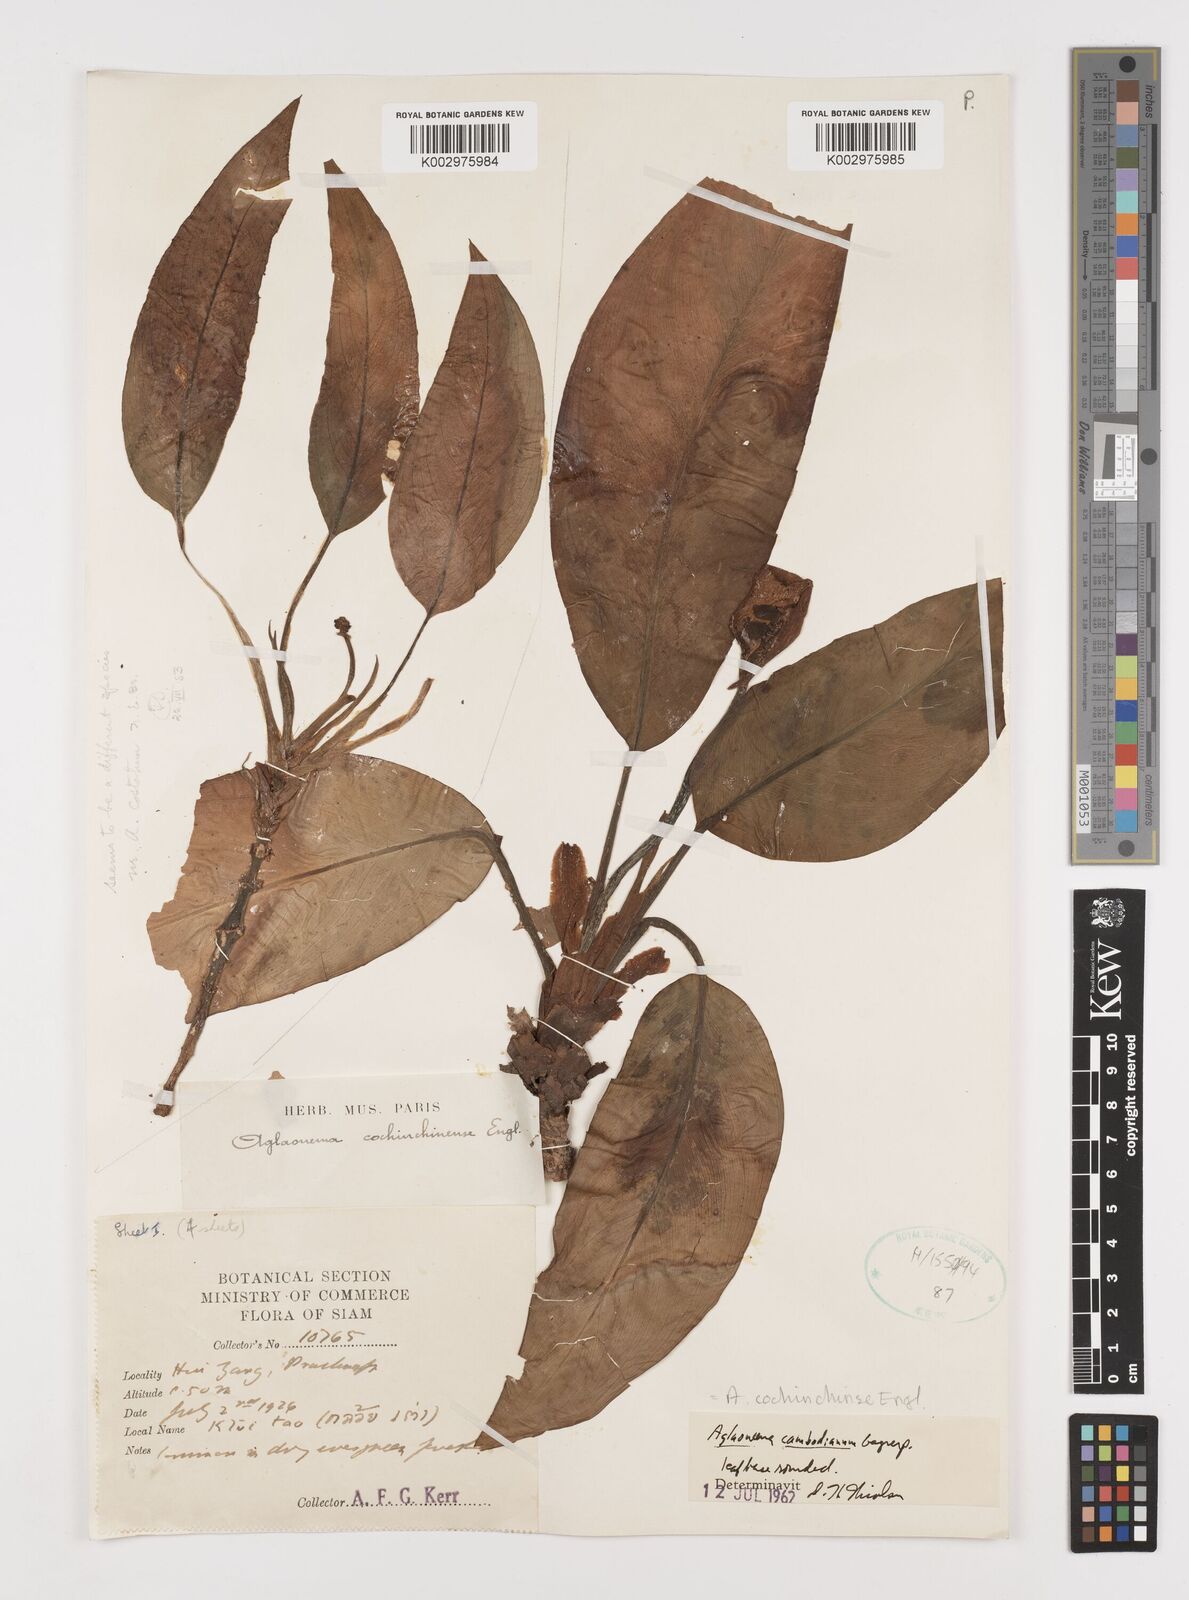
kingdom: Plantae
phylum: Tracheophyta
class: Liliopsida
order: Alismatales
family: Araceae
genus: Aglaonema
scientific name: Aglaonema cochinchinense
